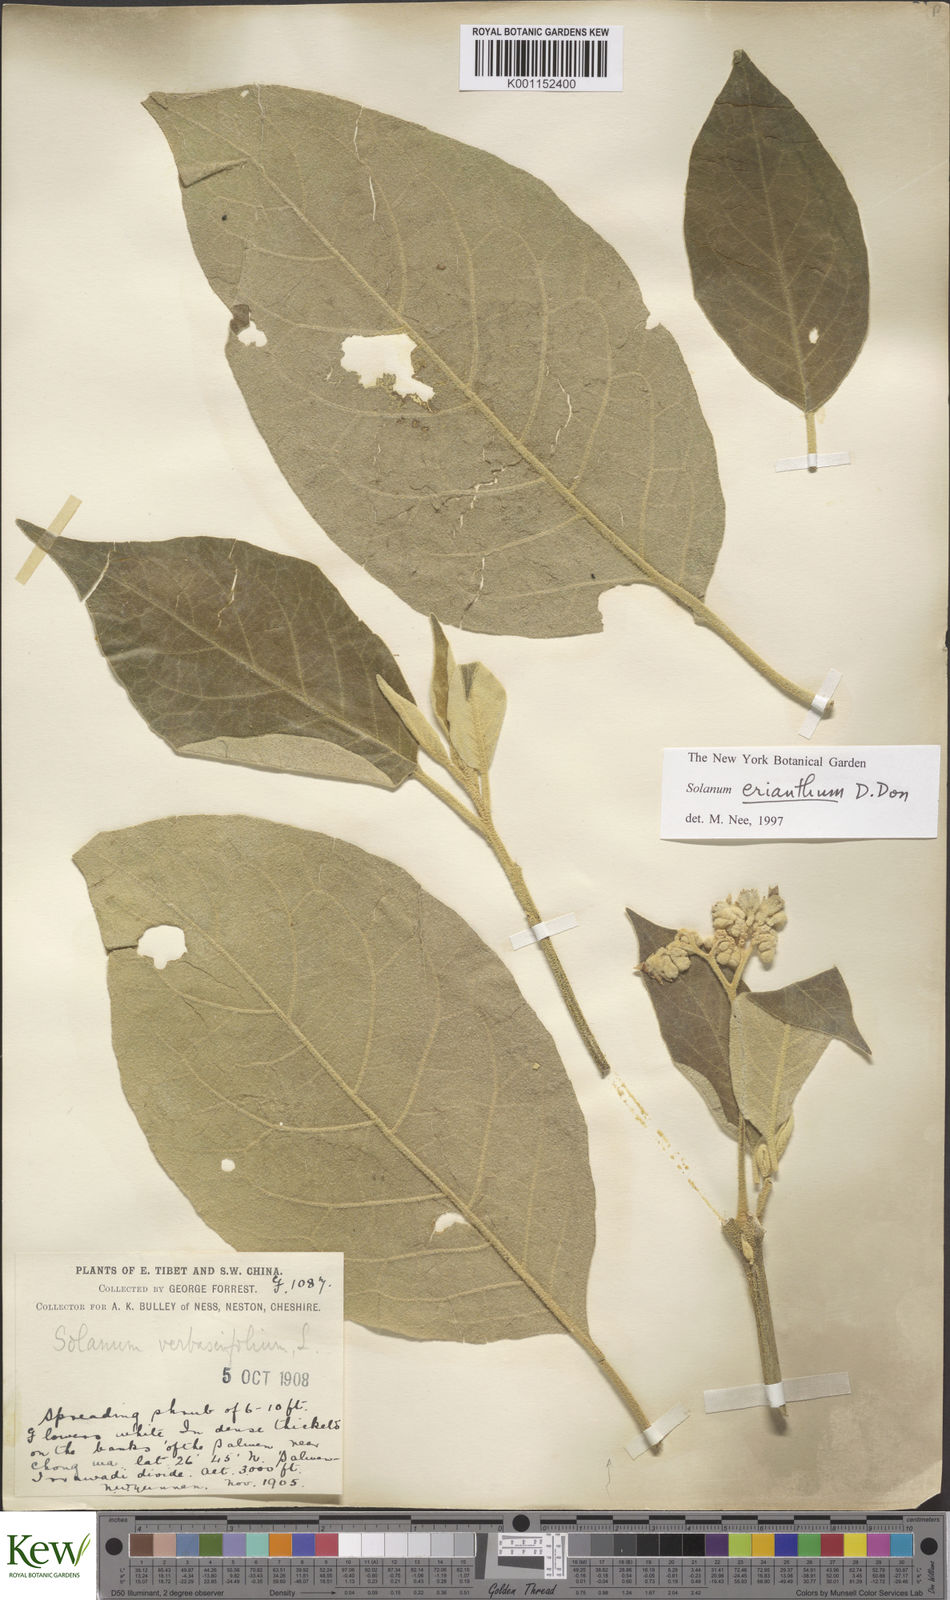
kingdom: Plantae
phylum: Tracheophyta
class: Magnoliopsida
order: Solanales
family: Solanaceae
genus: Solanum
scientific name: Solanum donianum
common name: Mullein nightshade
